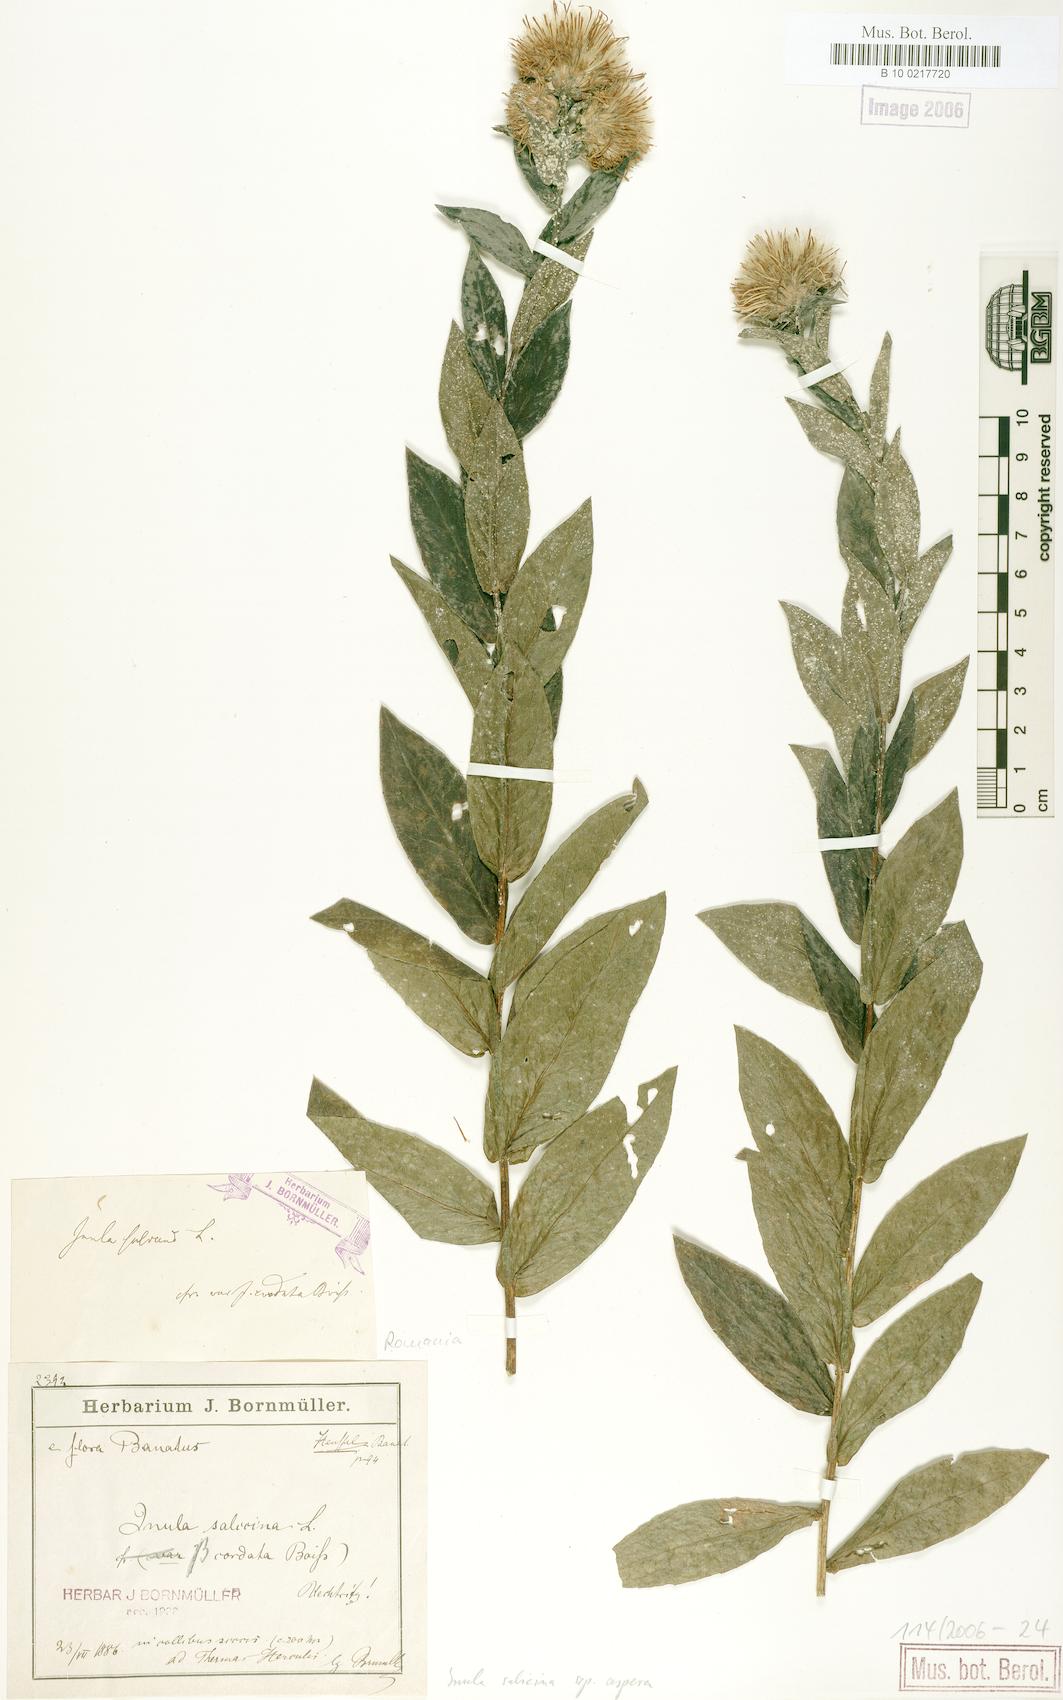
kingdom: Plantae
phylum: Tracheophyta
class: Magnoliopsida
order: Asterales
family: Asteraceae
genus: Pentanema
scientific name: Pentanema salicinum
